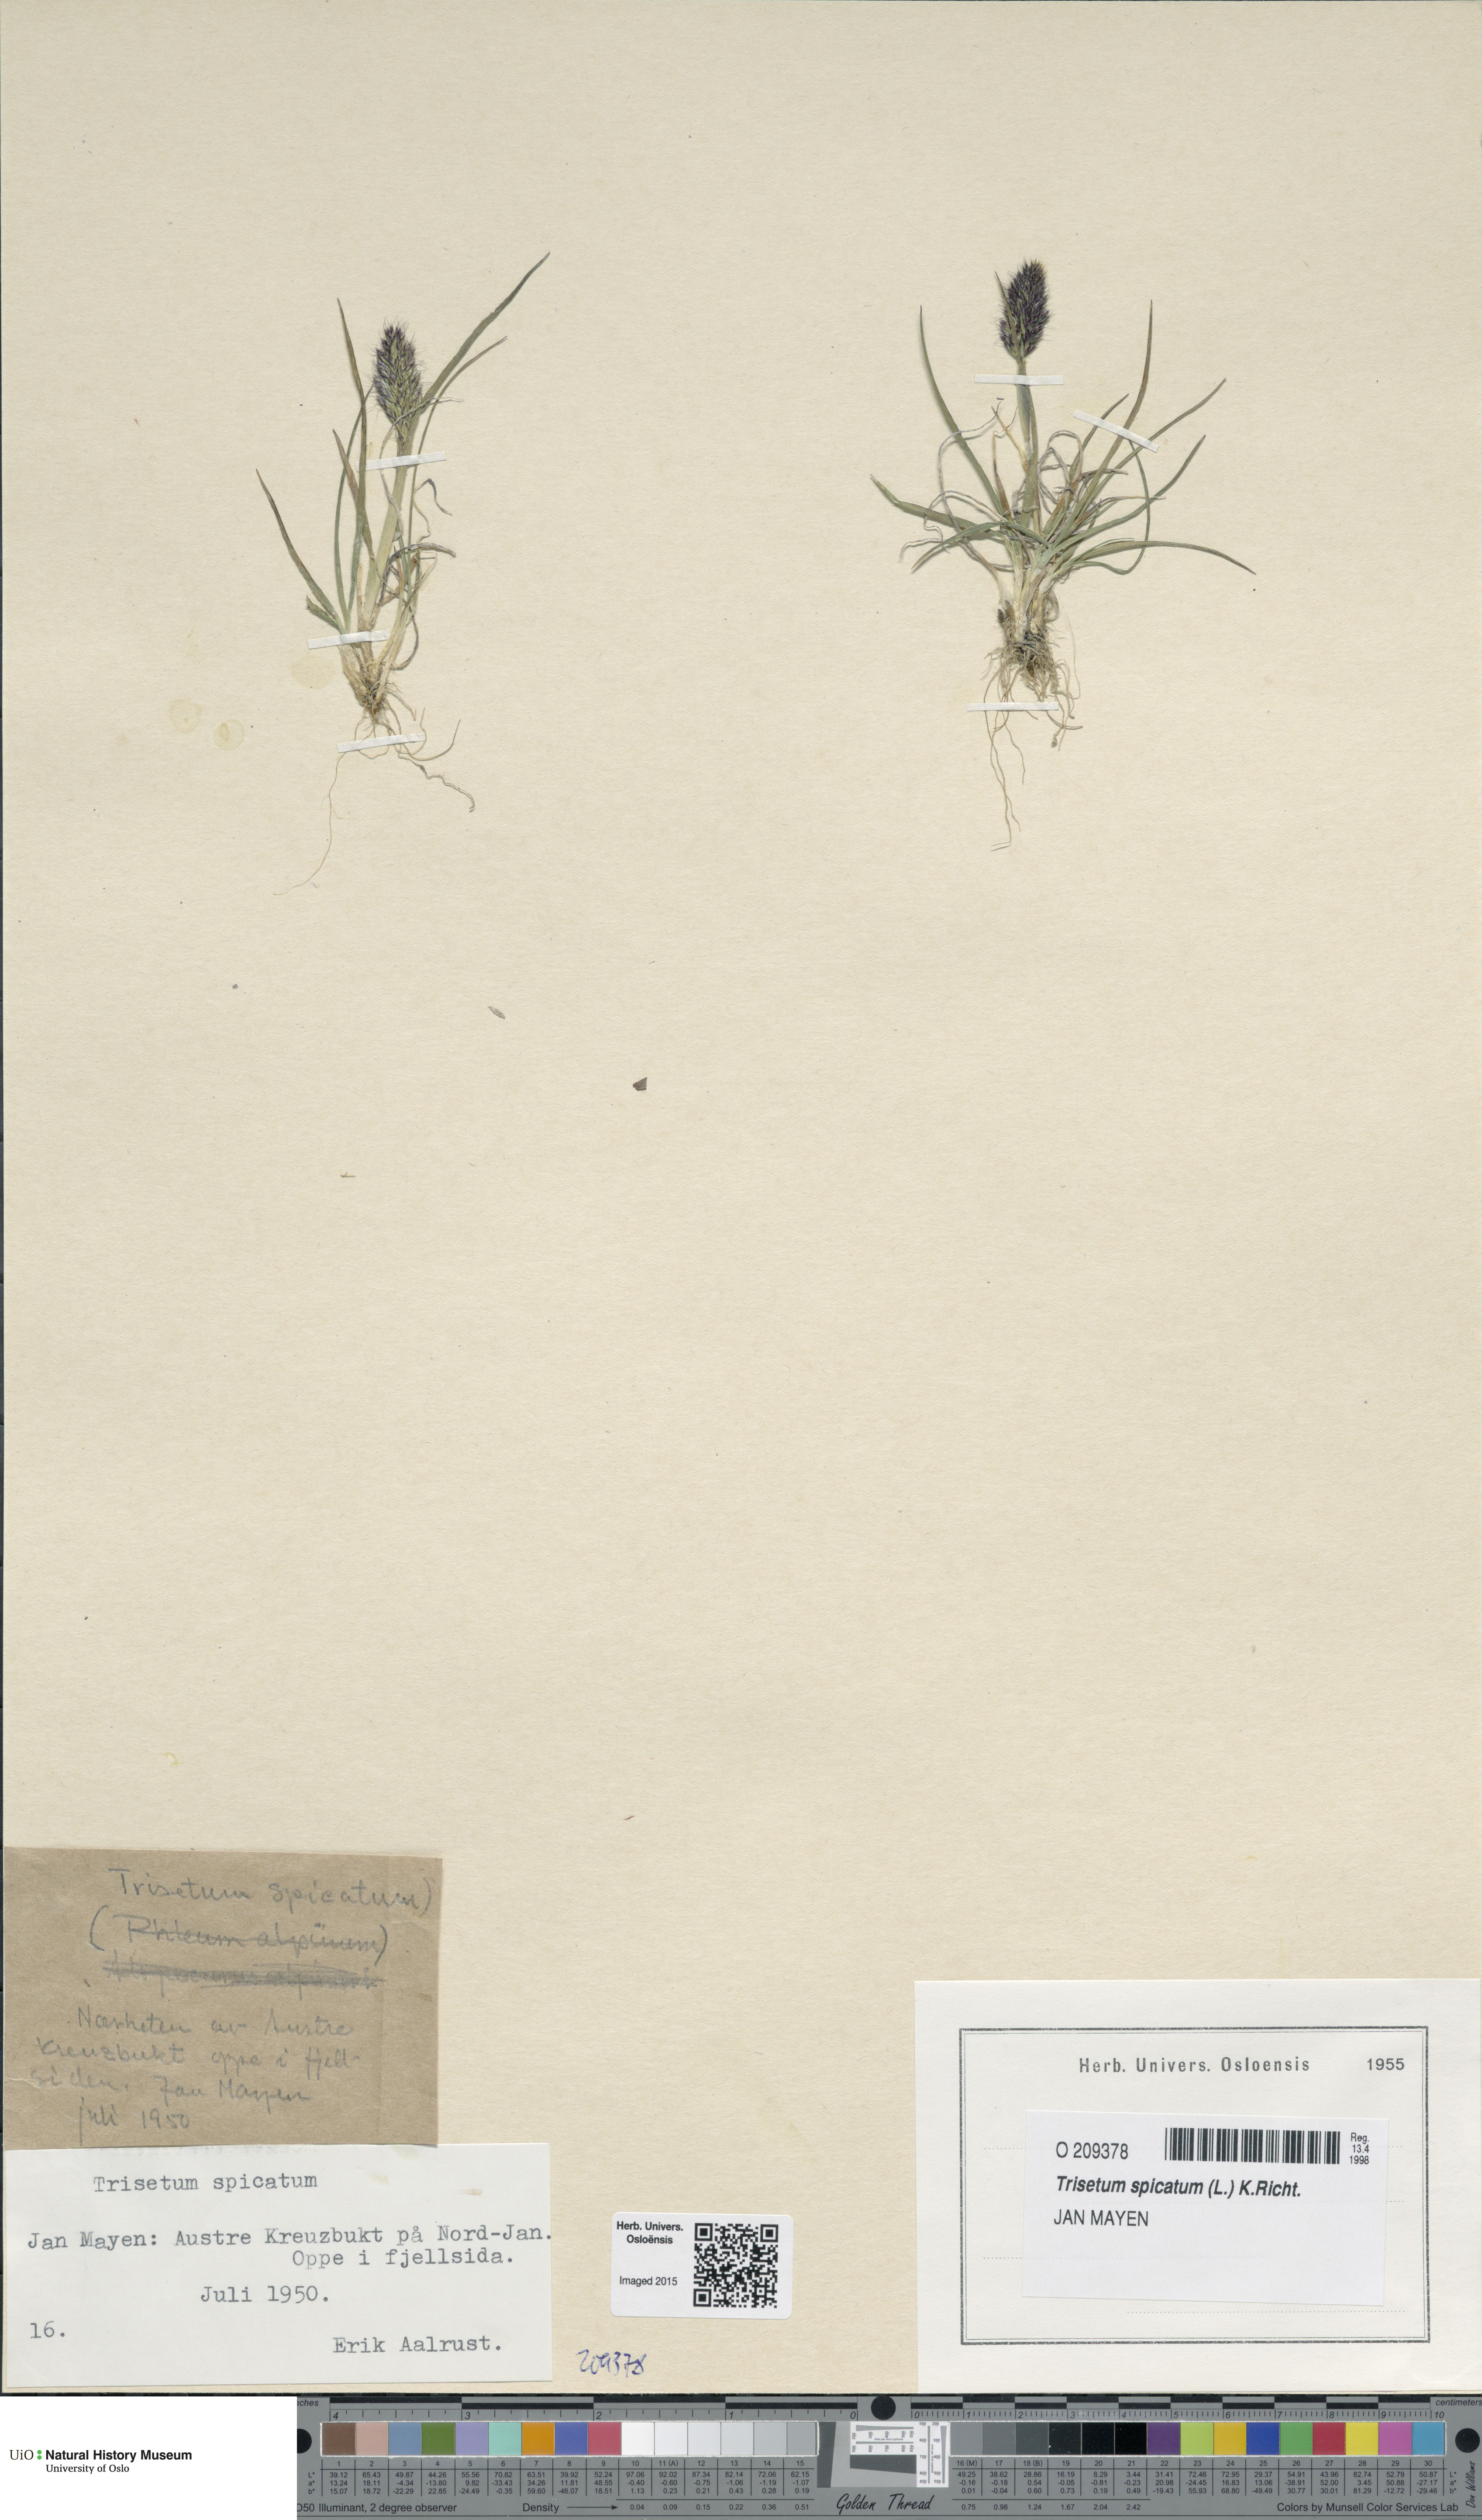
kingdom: Plantae
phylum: Tracheophyta
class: Liliopsida
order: Poales
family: Poaceae
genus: Koeleria
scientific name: Koeleria spicata
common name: Mountain trisetum
